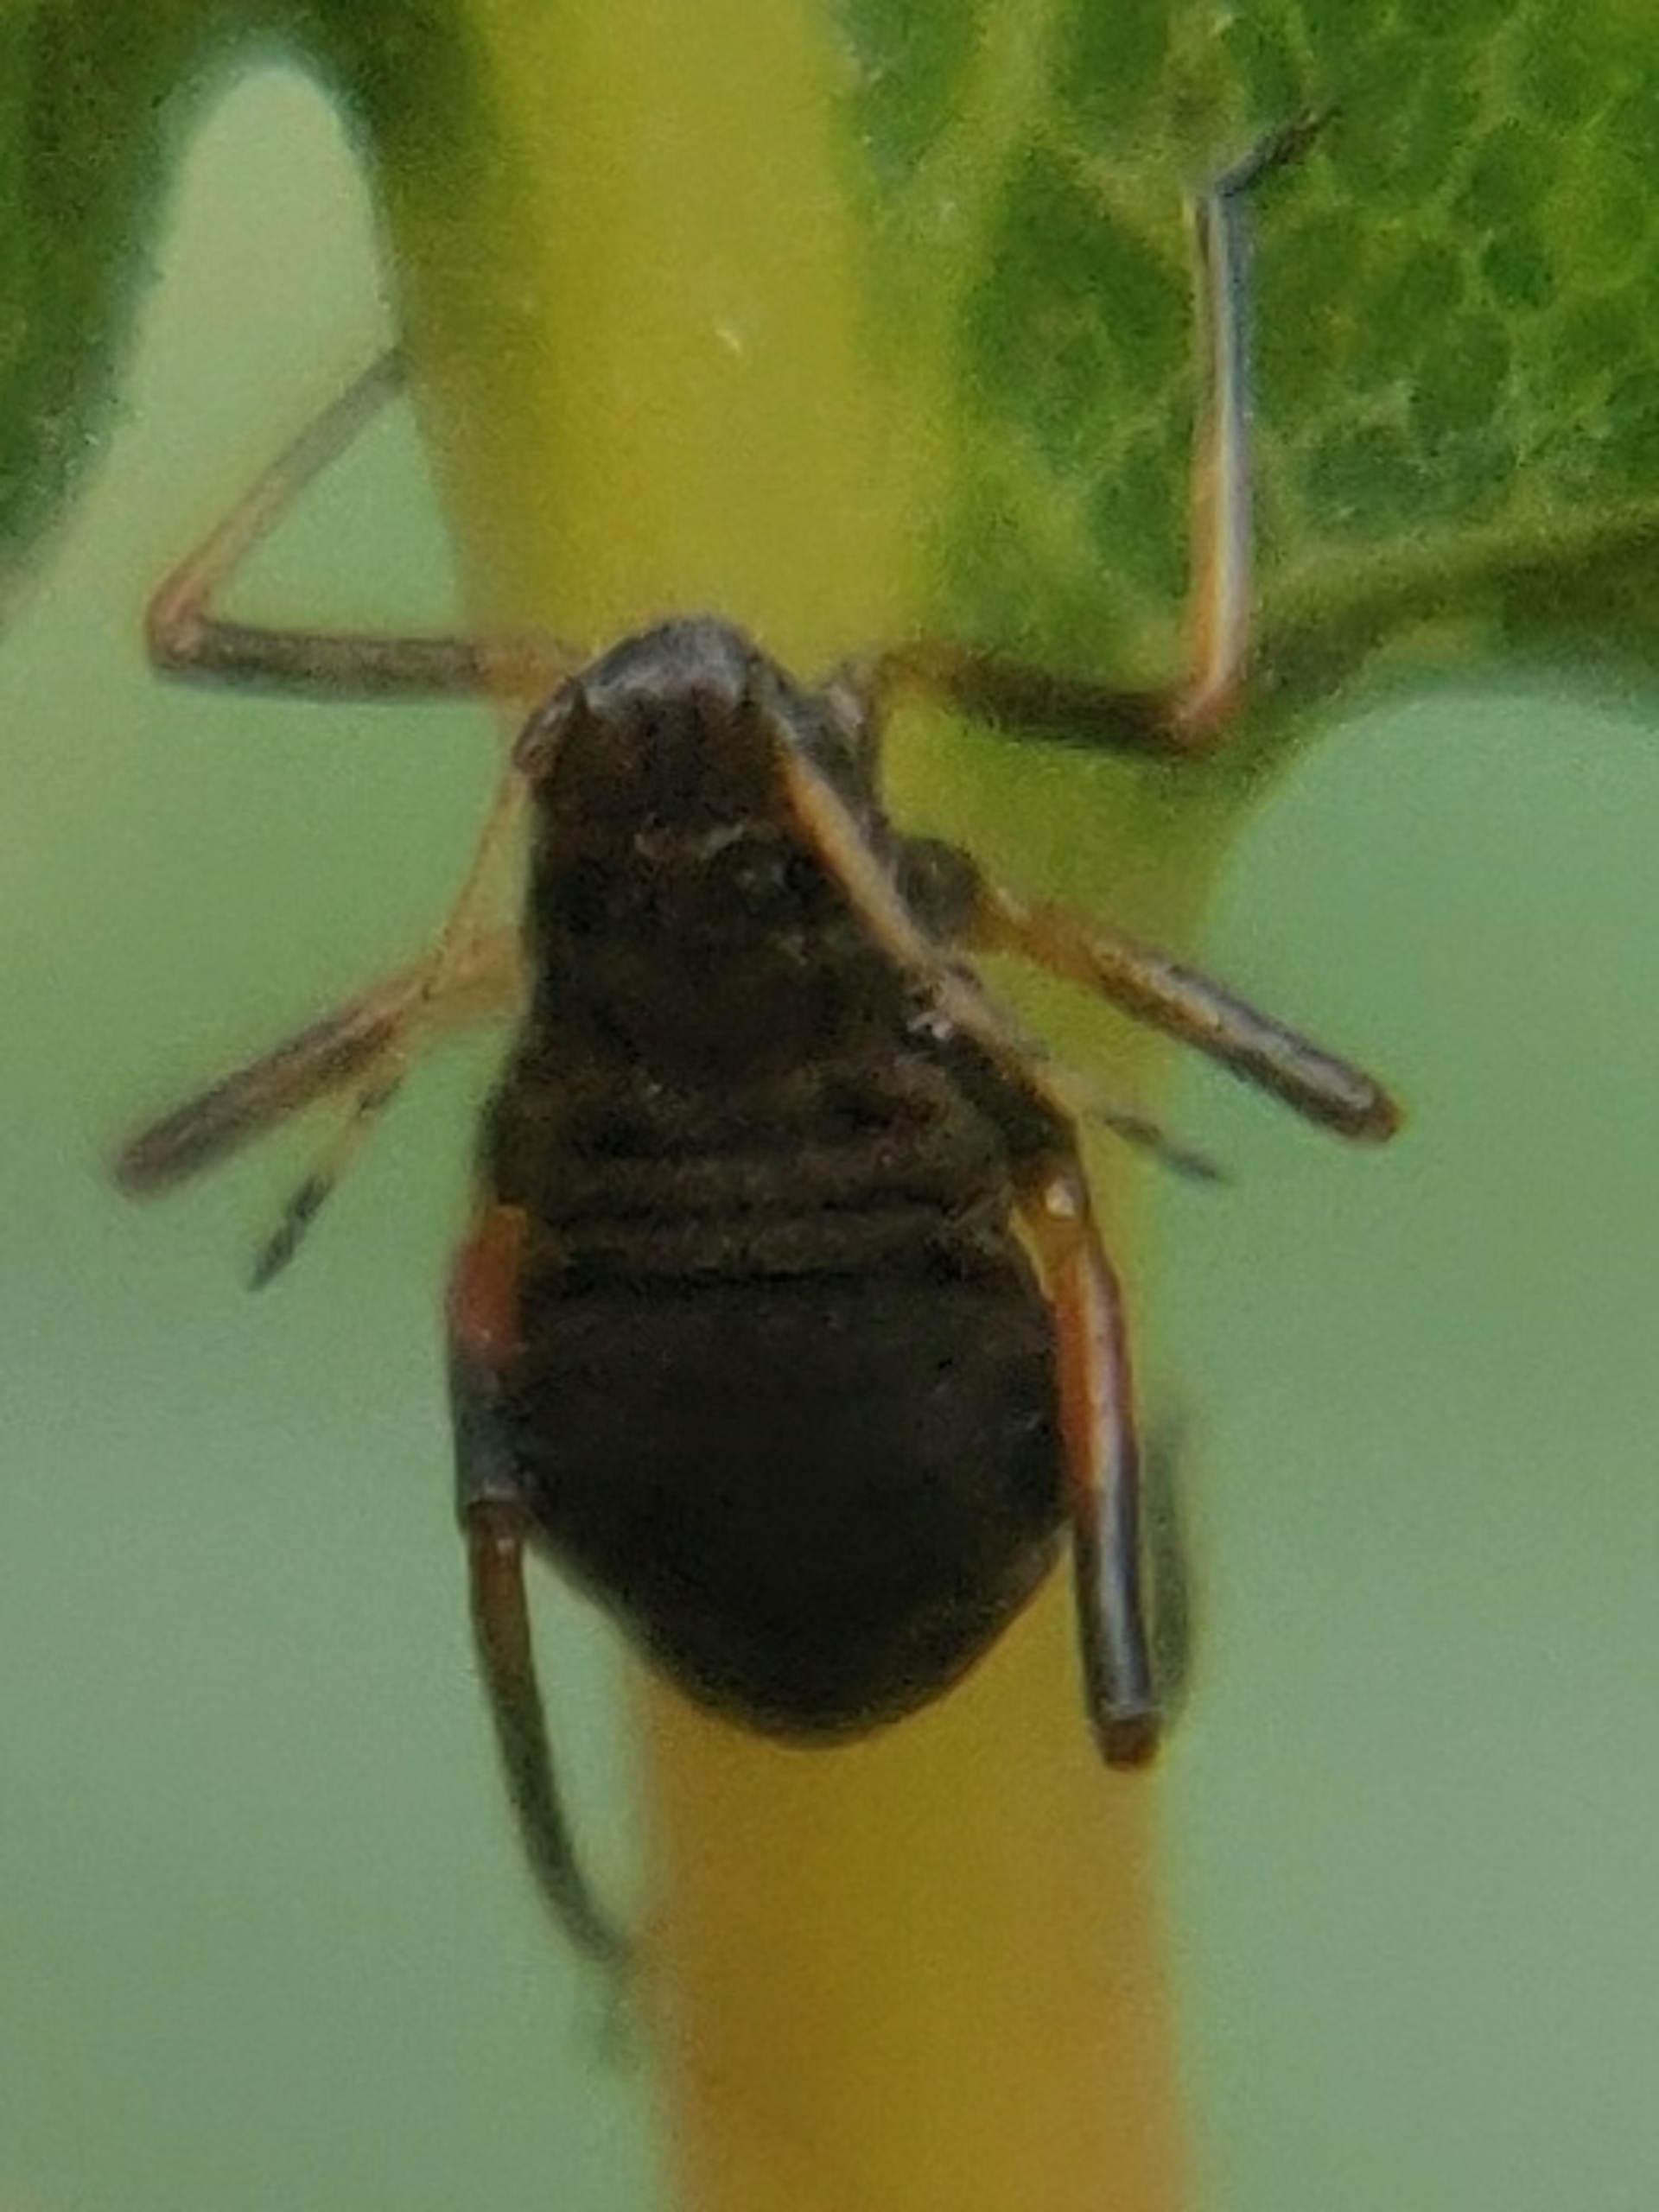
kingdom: Animalia
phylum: Arthropoda
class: Insecta
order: Hemiptera
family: Aphididae
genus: Lachnus
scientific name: Lachnus roboris
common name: Egegrenbladlus
